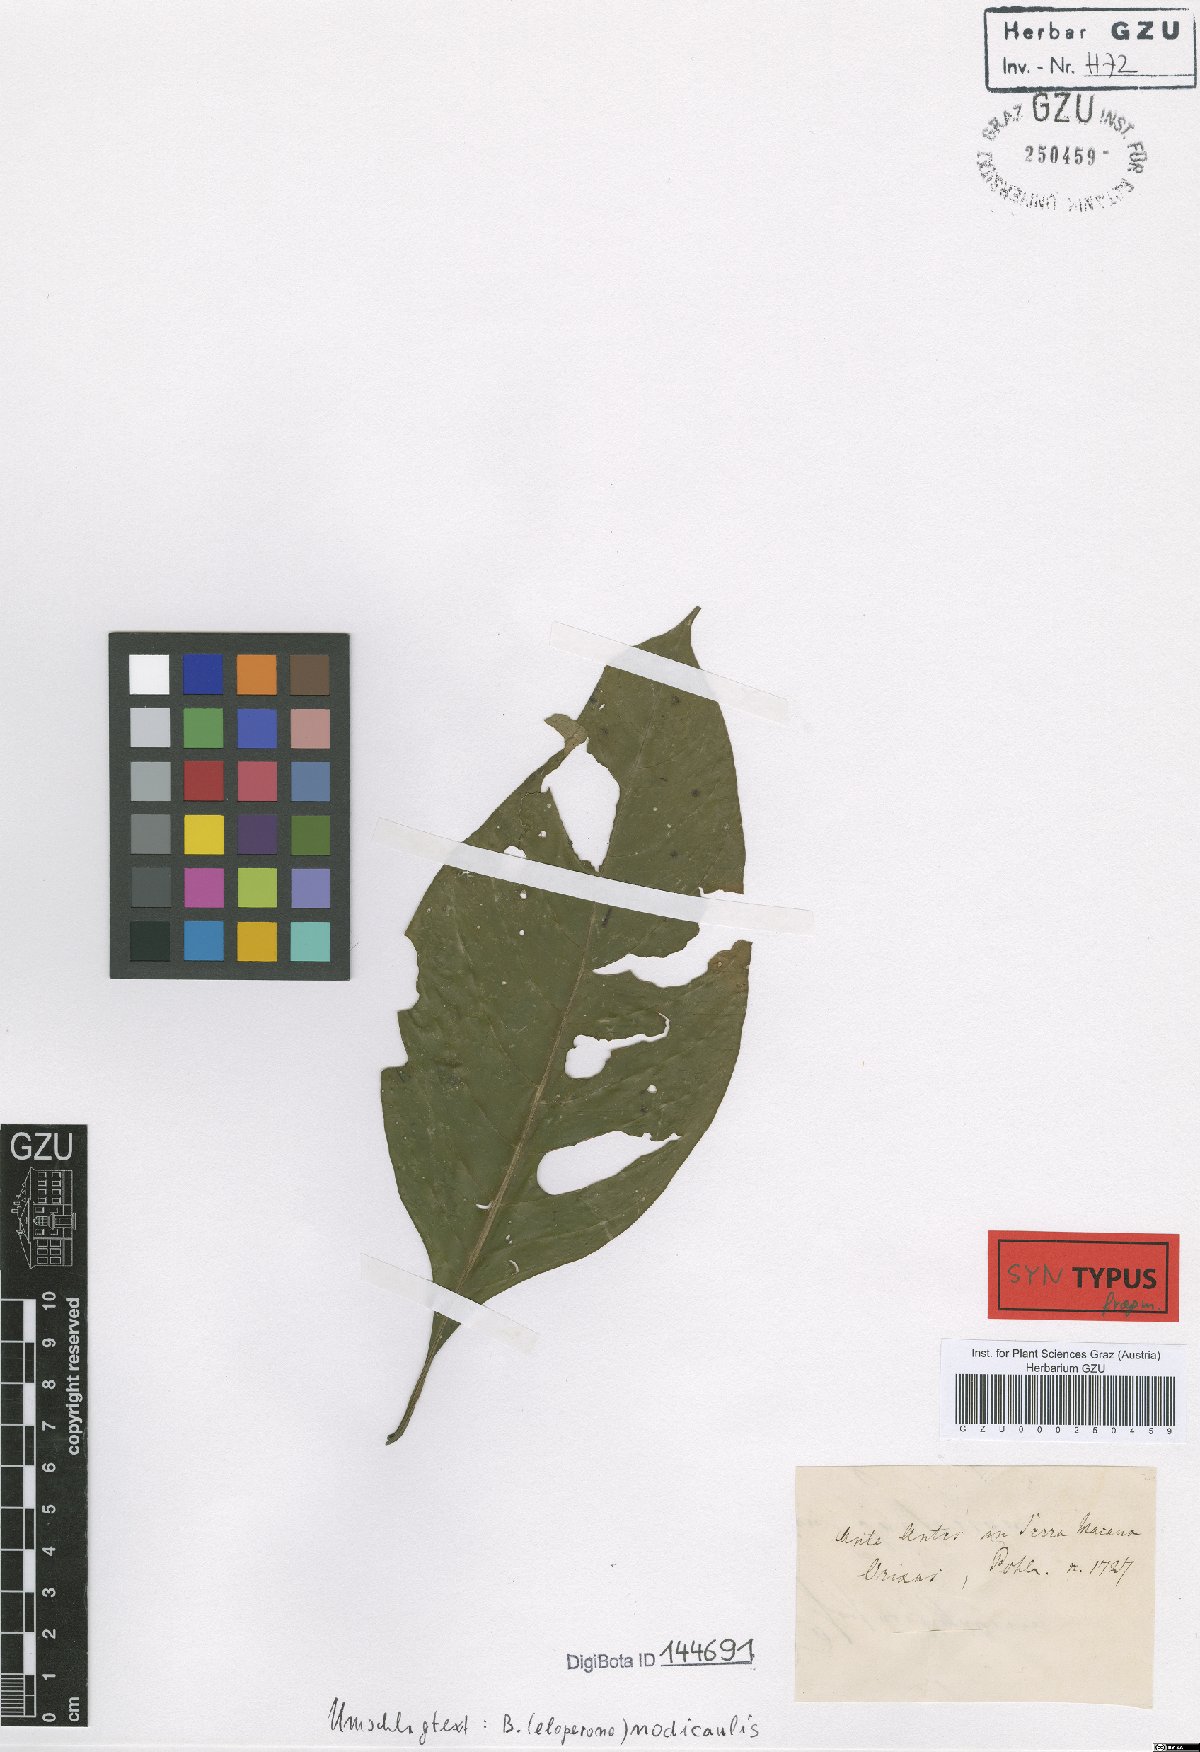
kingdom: Plantae
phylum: Tracheophyta
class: Magnoliopsida
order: Lamiales
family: Acanthaceae
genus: Justicia
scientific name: Justicia nodicaulis
